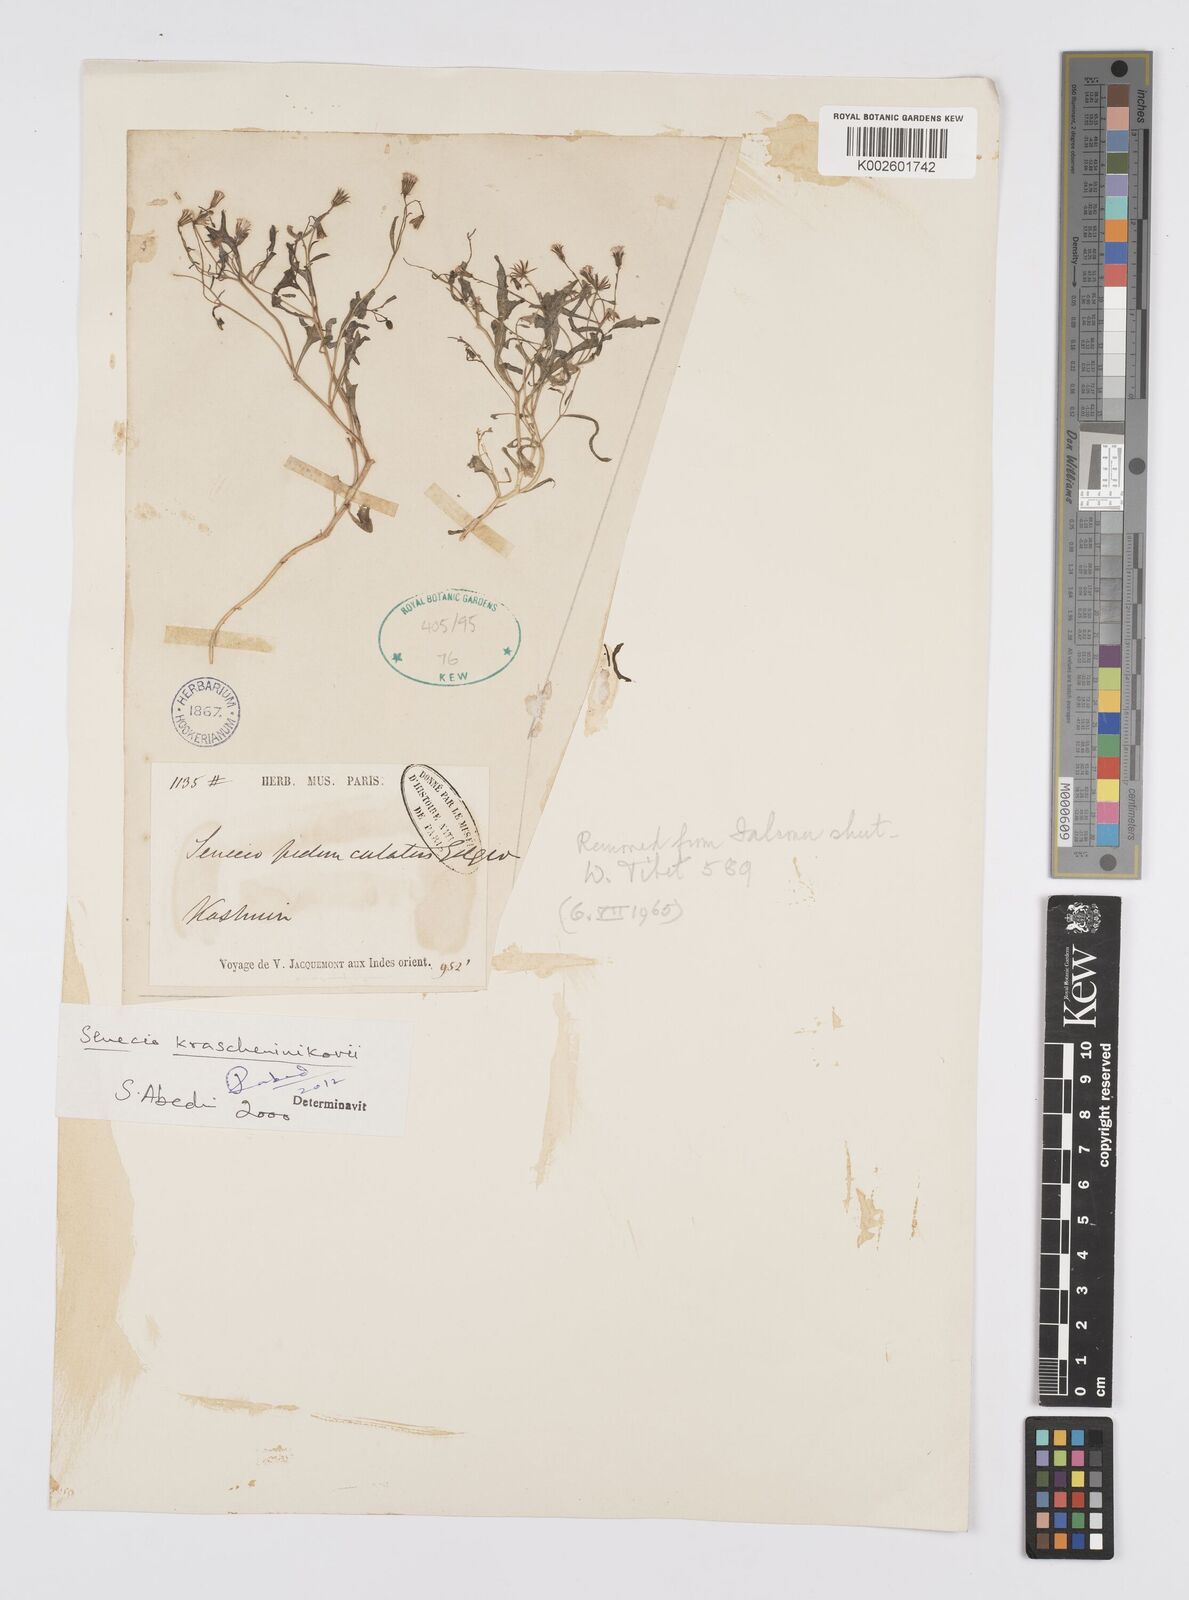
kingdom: Plantae
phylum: Tracheophyta
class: Magnoliopsida
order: Asterales
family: Asteraceae
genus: Senecio
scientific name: Senecio krascheninnikovii
